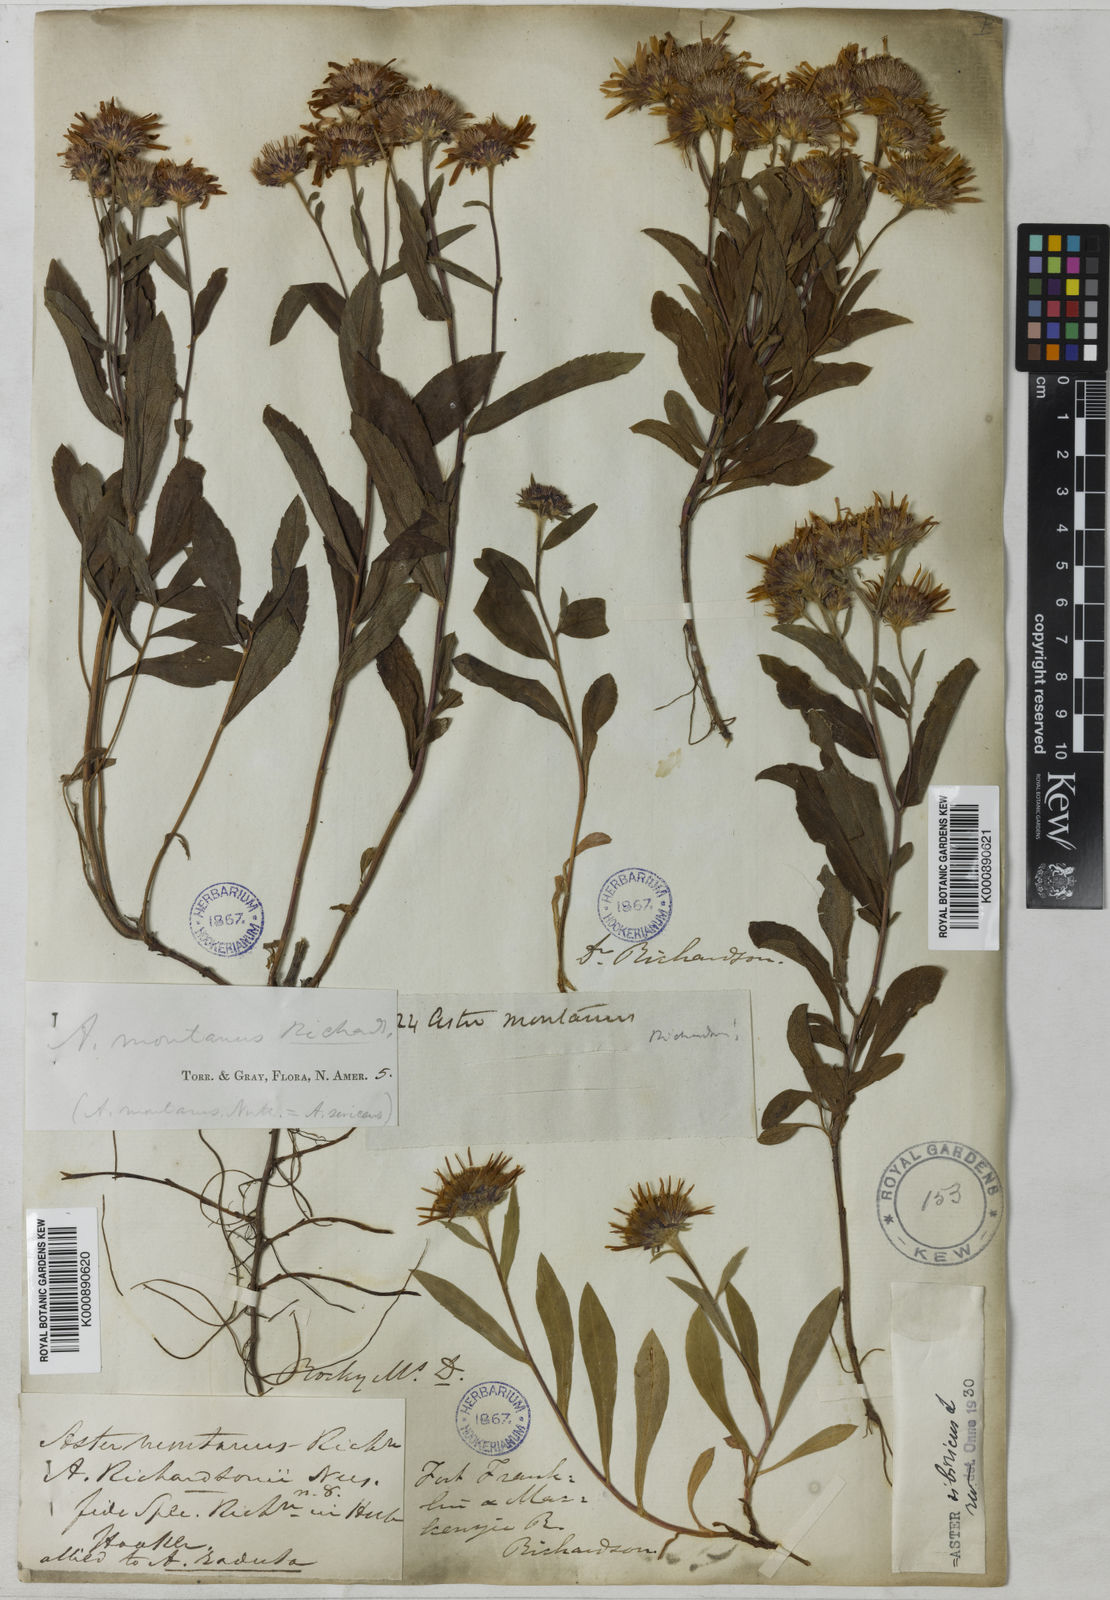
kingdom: Plantae
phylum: Tracheophyta
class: Magnoliopsida
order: Asterales
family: Asteraceae
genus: Eurybia
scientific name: Eurybia sibirica
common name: Arctic aster
